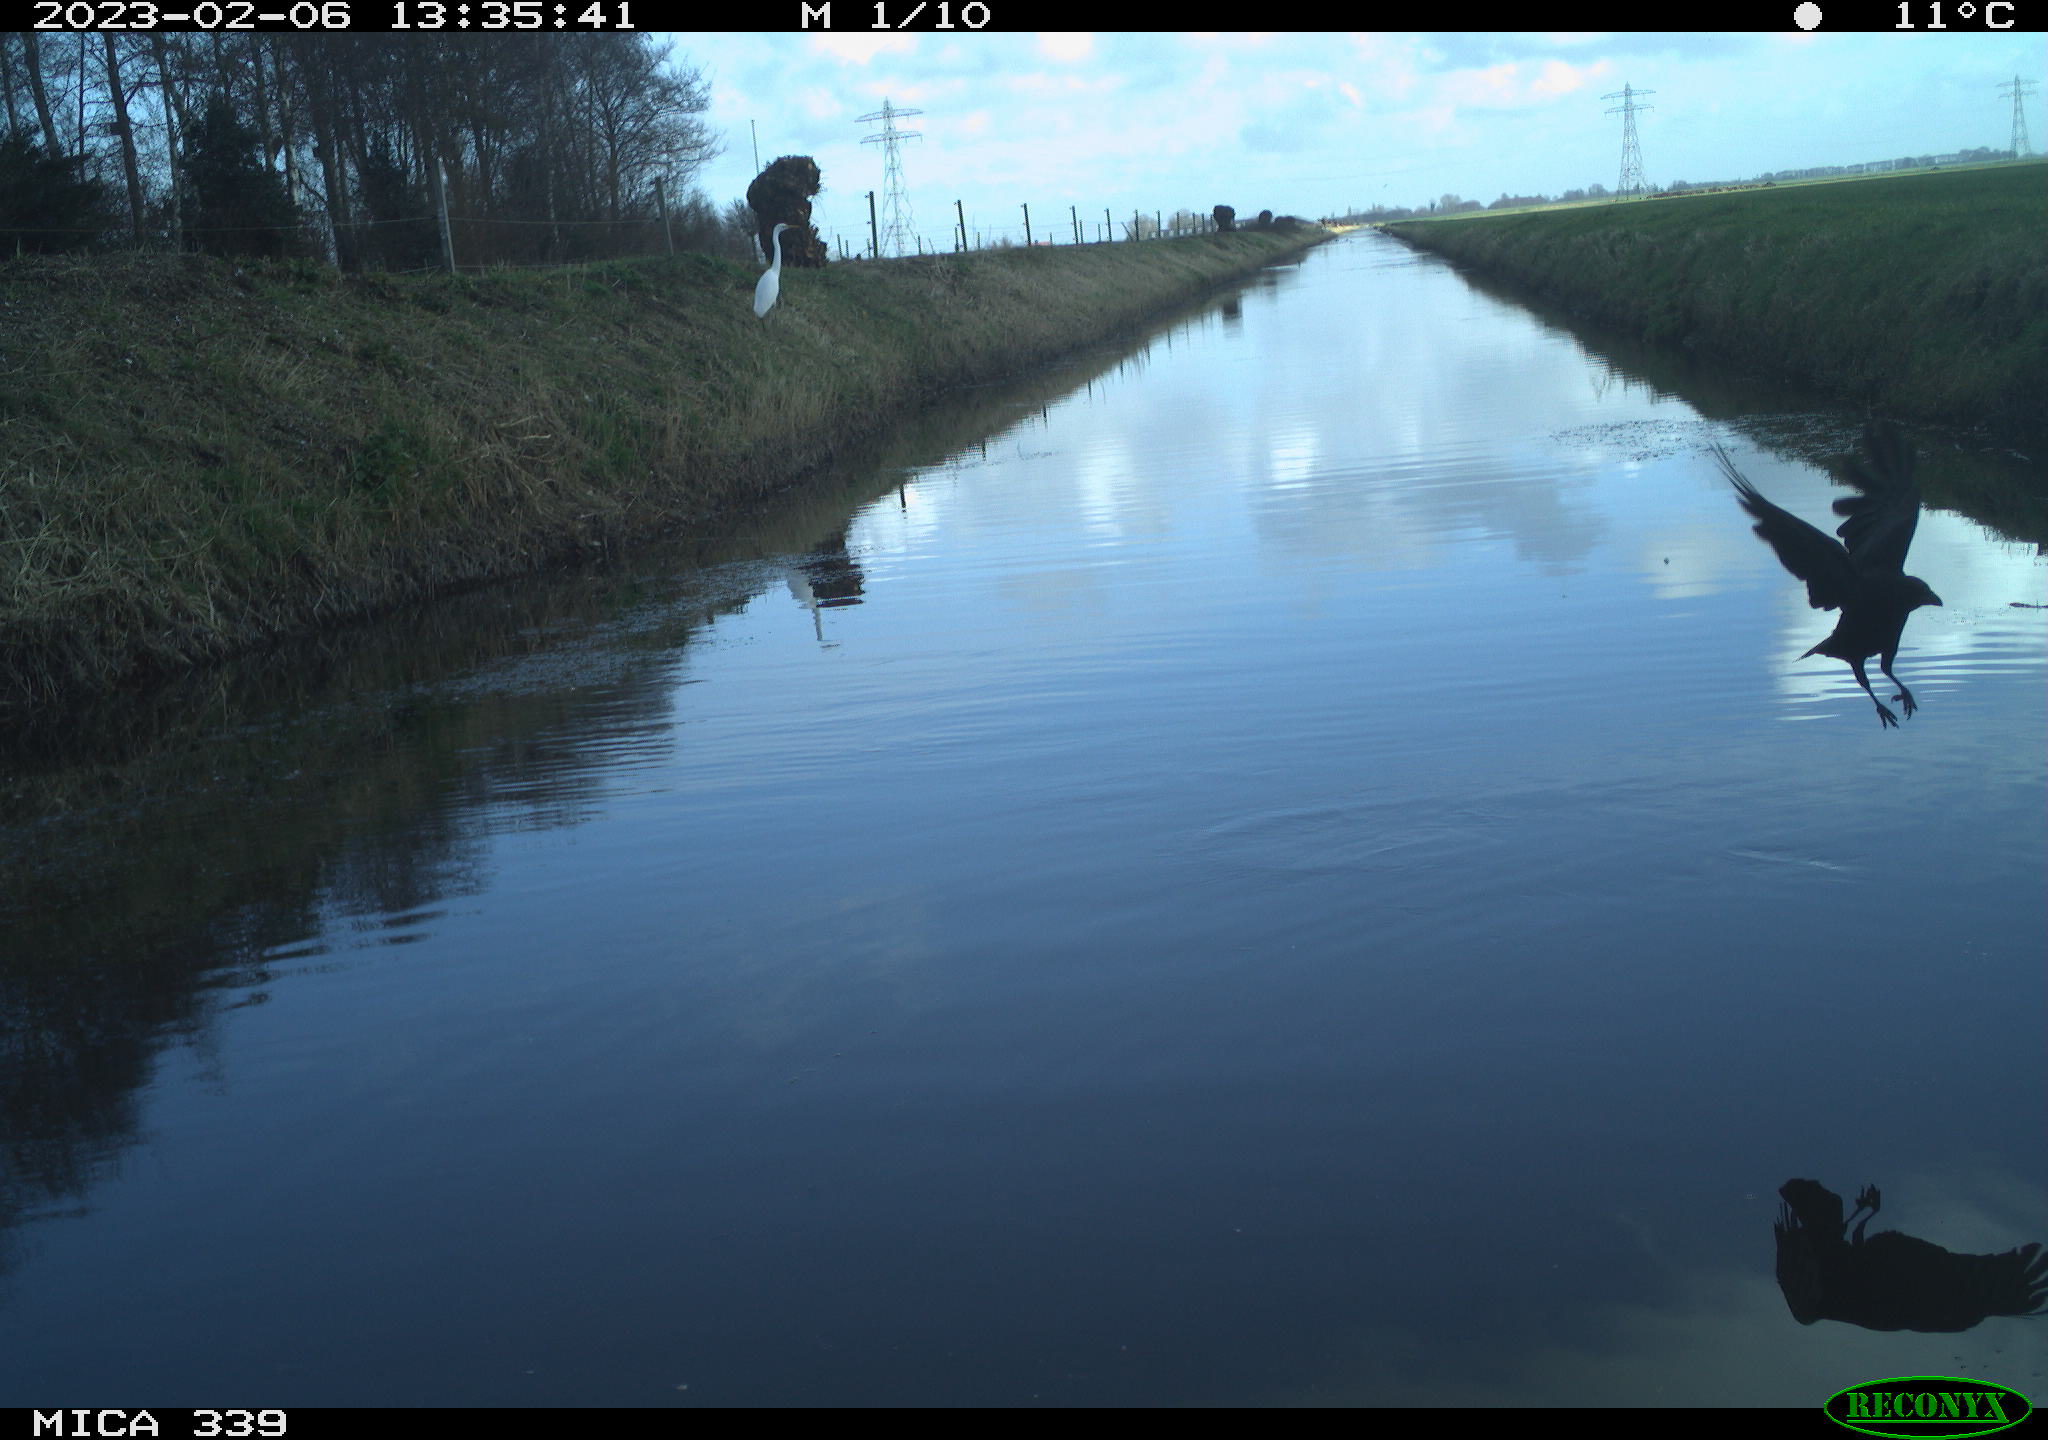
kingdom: Animalia
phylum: Chordata
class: Aves
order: Pelecaniformes
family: Ardeidae
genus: Ardea
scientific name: Ardea alba
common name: Great egret
